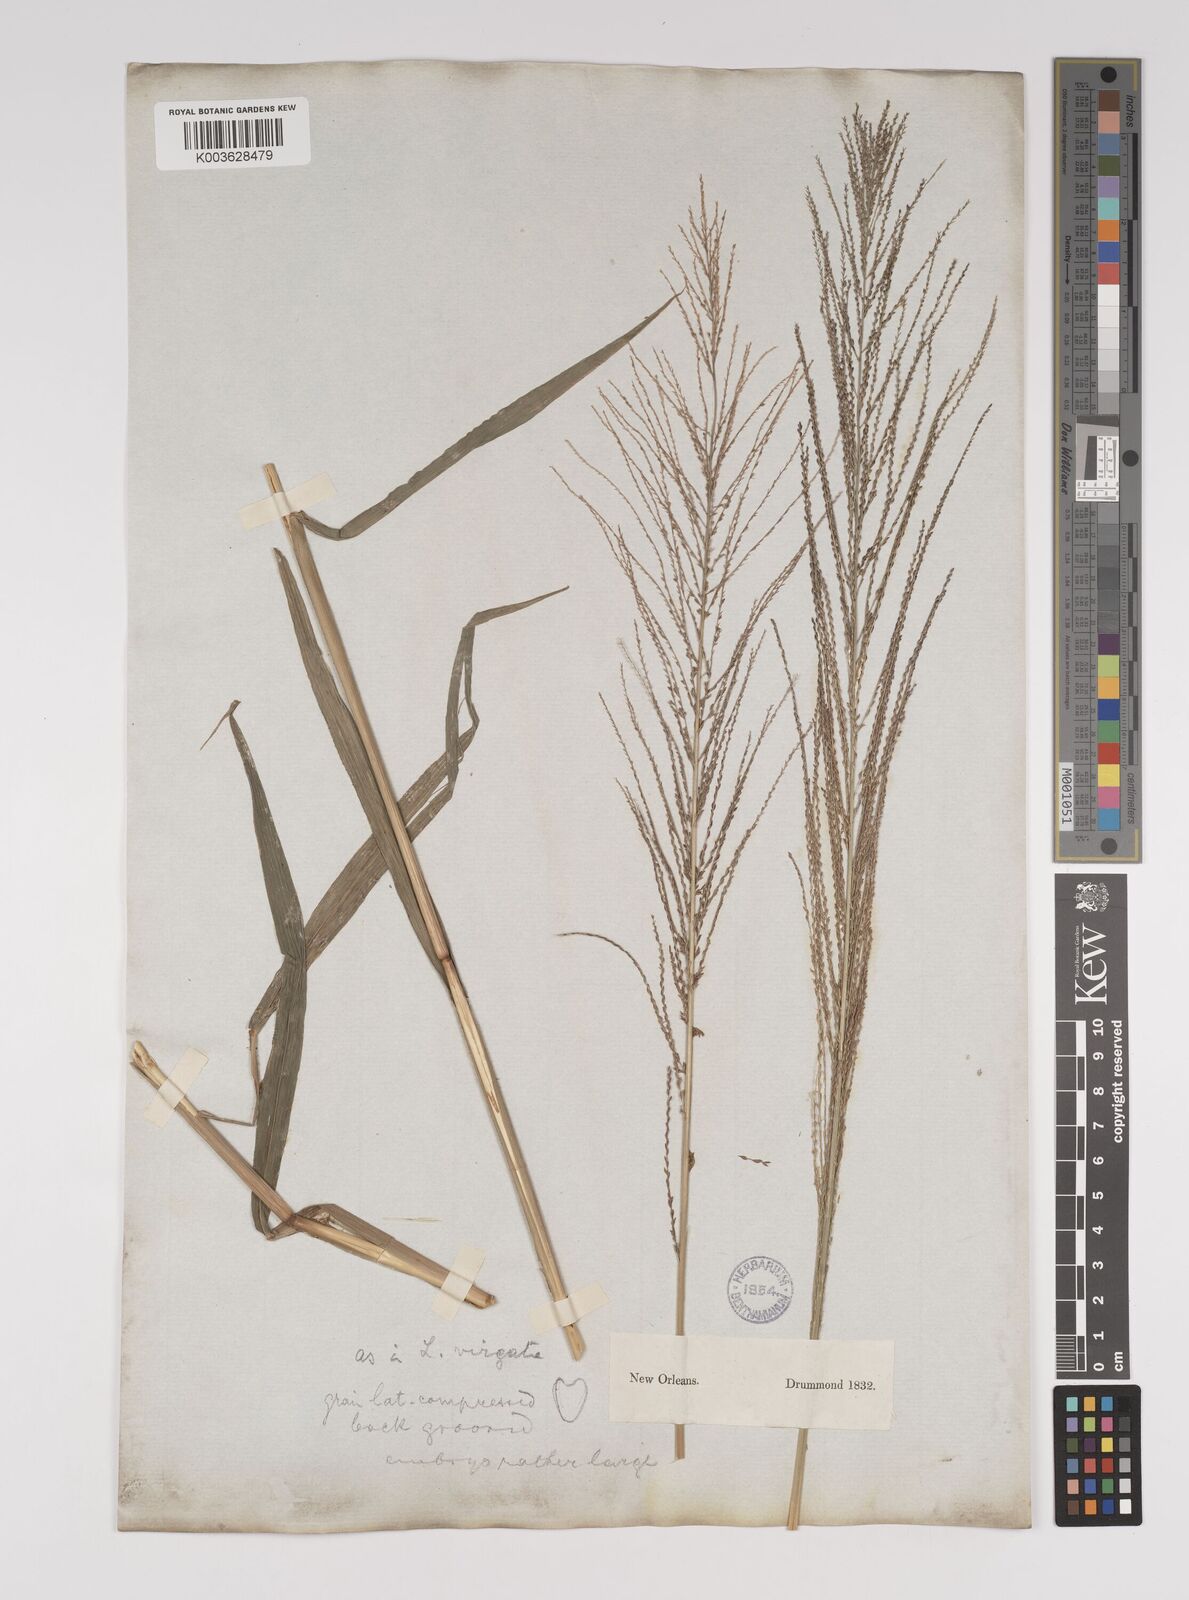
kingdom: Plantae
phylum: Tracheophyta
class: Liliopsida
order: Poales
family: Poaceae
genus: Leptochloa
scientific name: Leptochloa panicea
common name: Mucronate sprangletop
